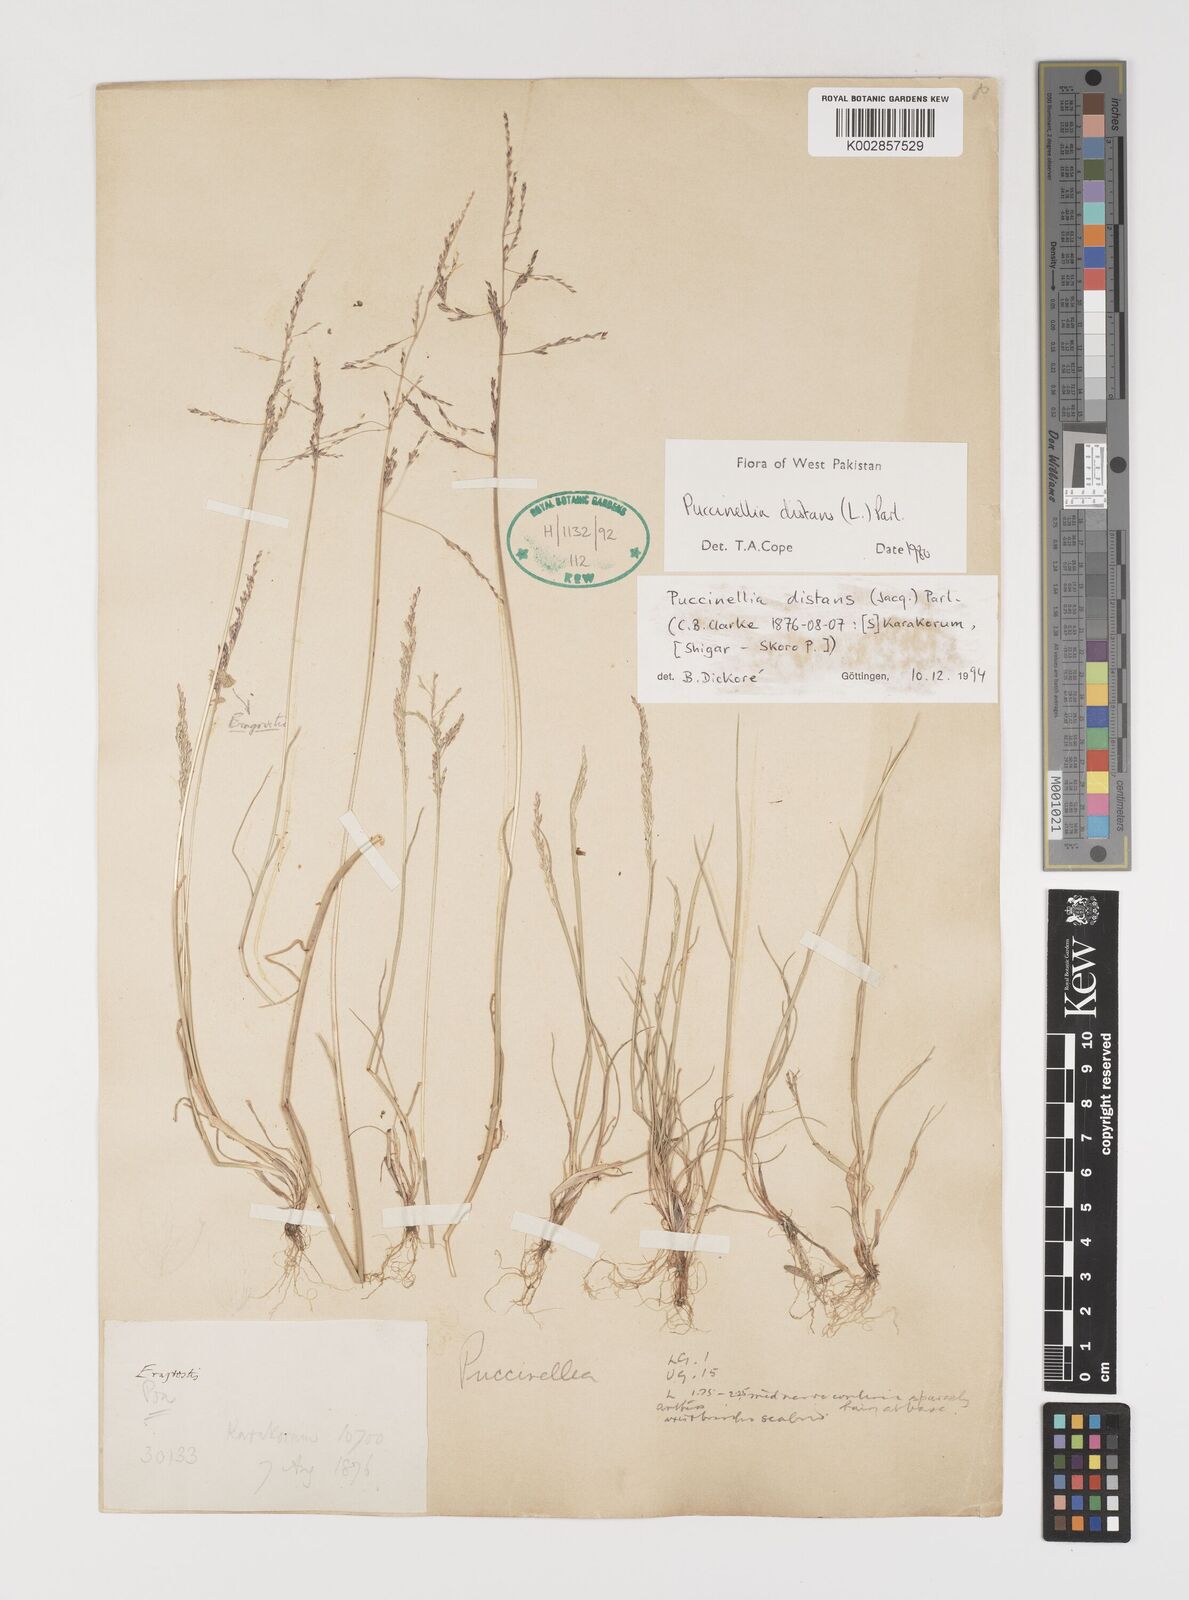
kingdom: Plantae
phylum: Tracheophyta
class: Liliopsida
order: Poales
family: Poaceae
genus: Puccinellia
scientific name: Puccinellia distans
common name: Weeping alkaligrass
